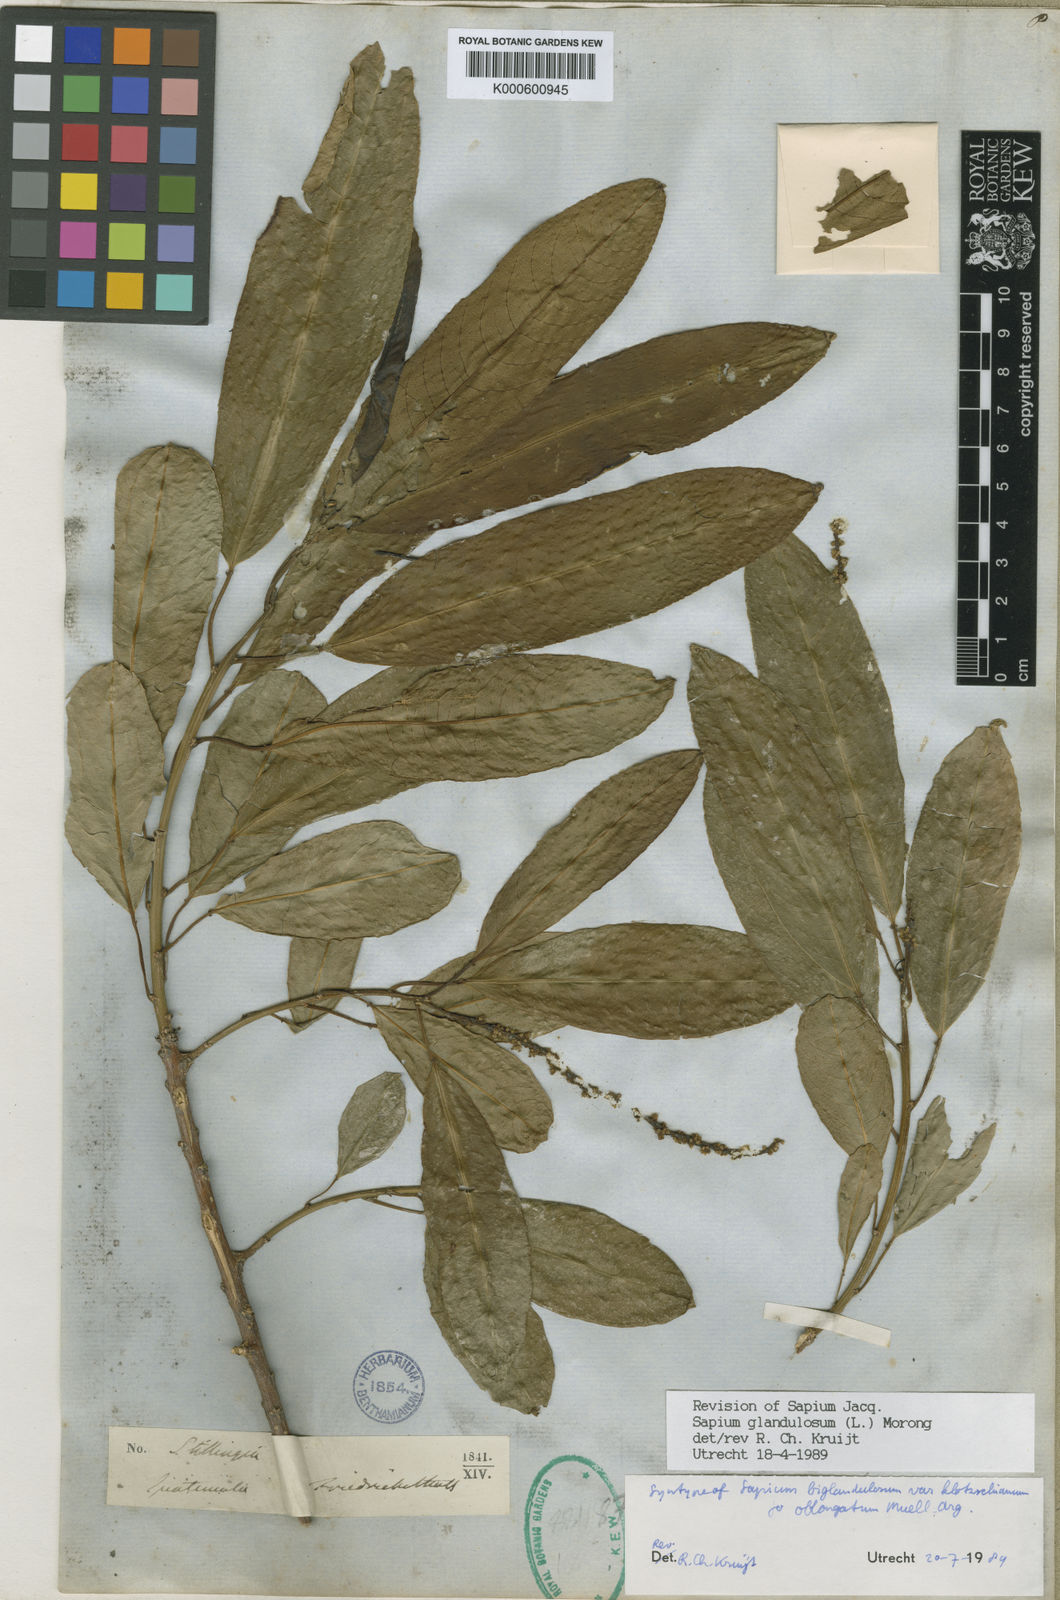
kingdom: Plantae
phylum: Tracheophyta
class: Magnoliopsida
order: Malpighiales
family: Euphorbiaceae
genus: Sapium
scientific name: Sapium glandulosum
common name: Milktree
